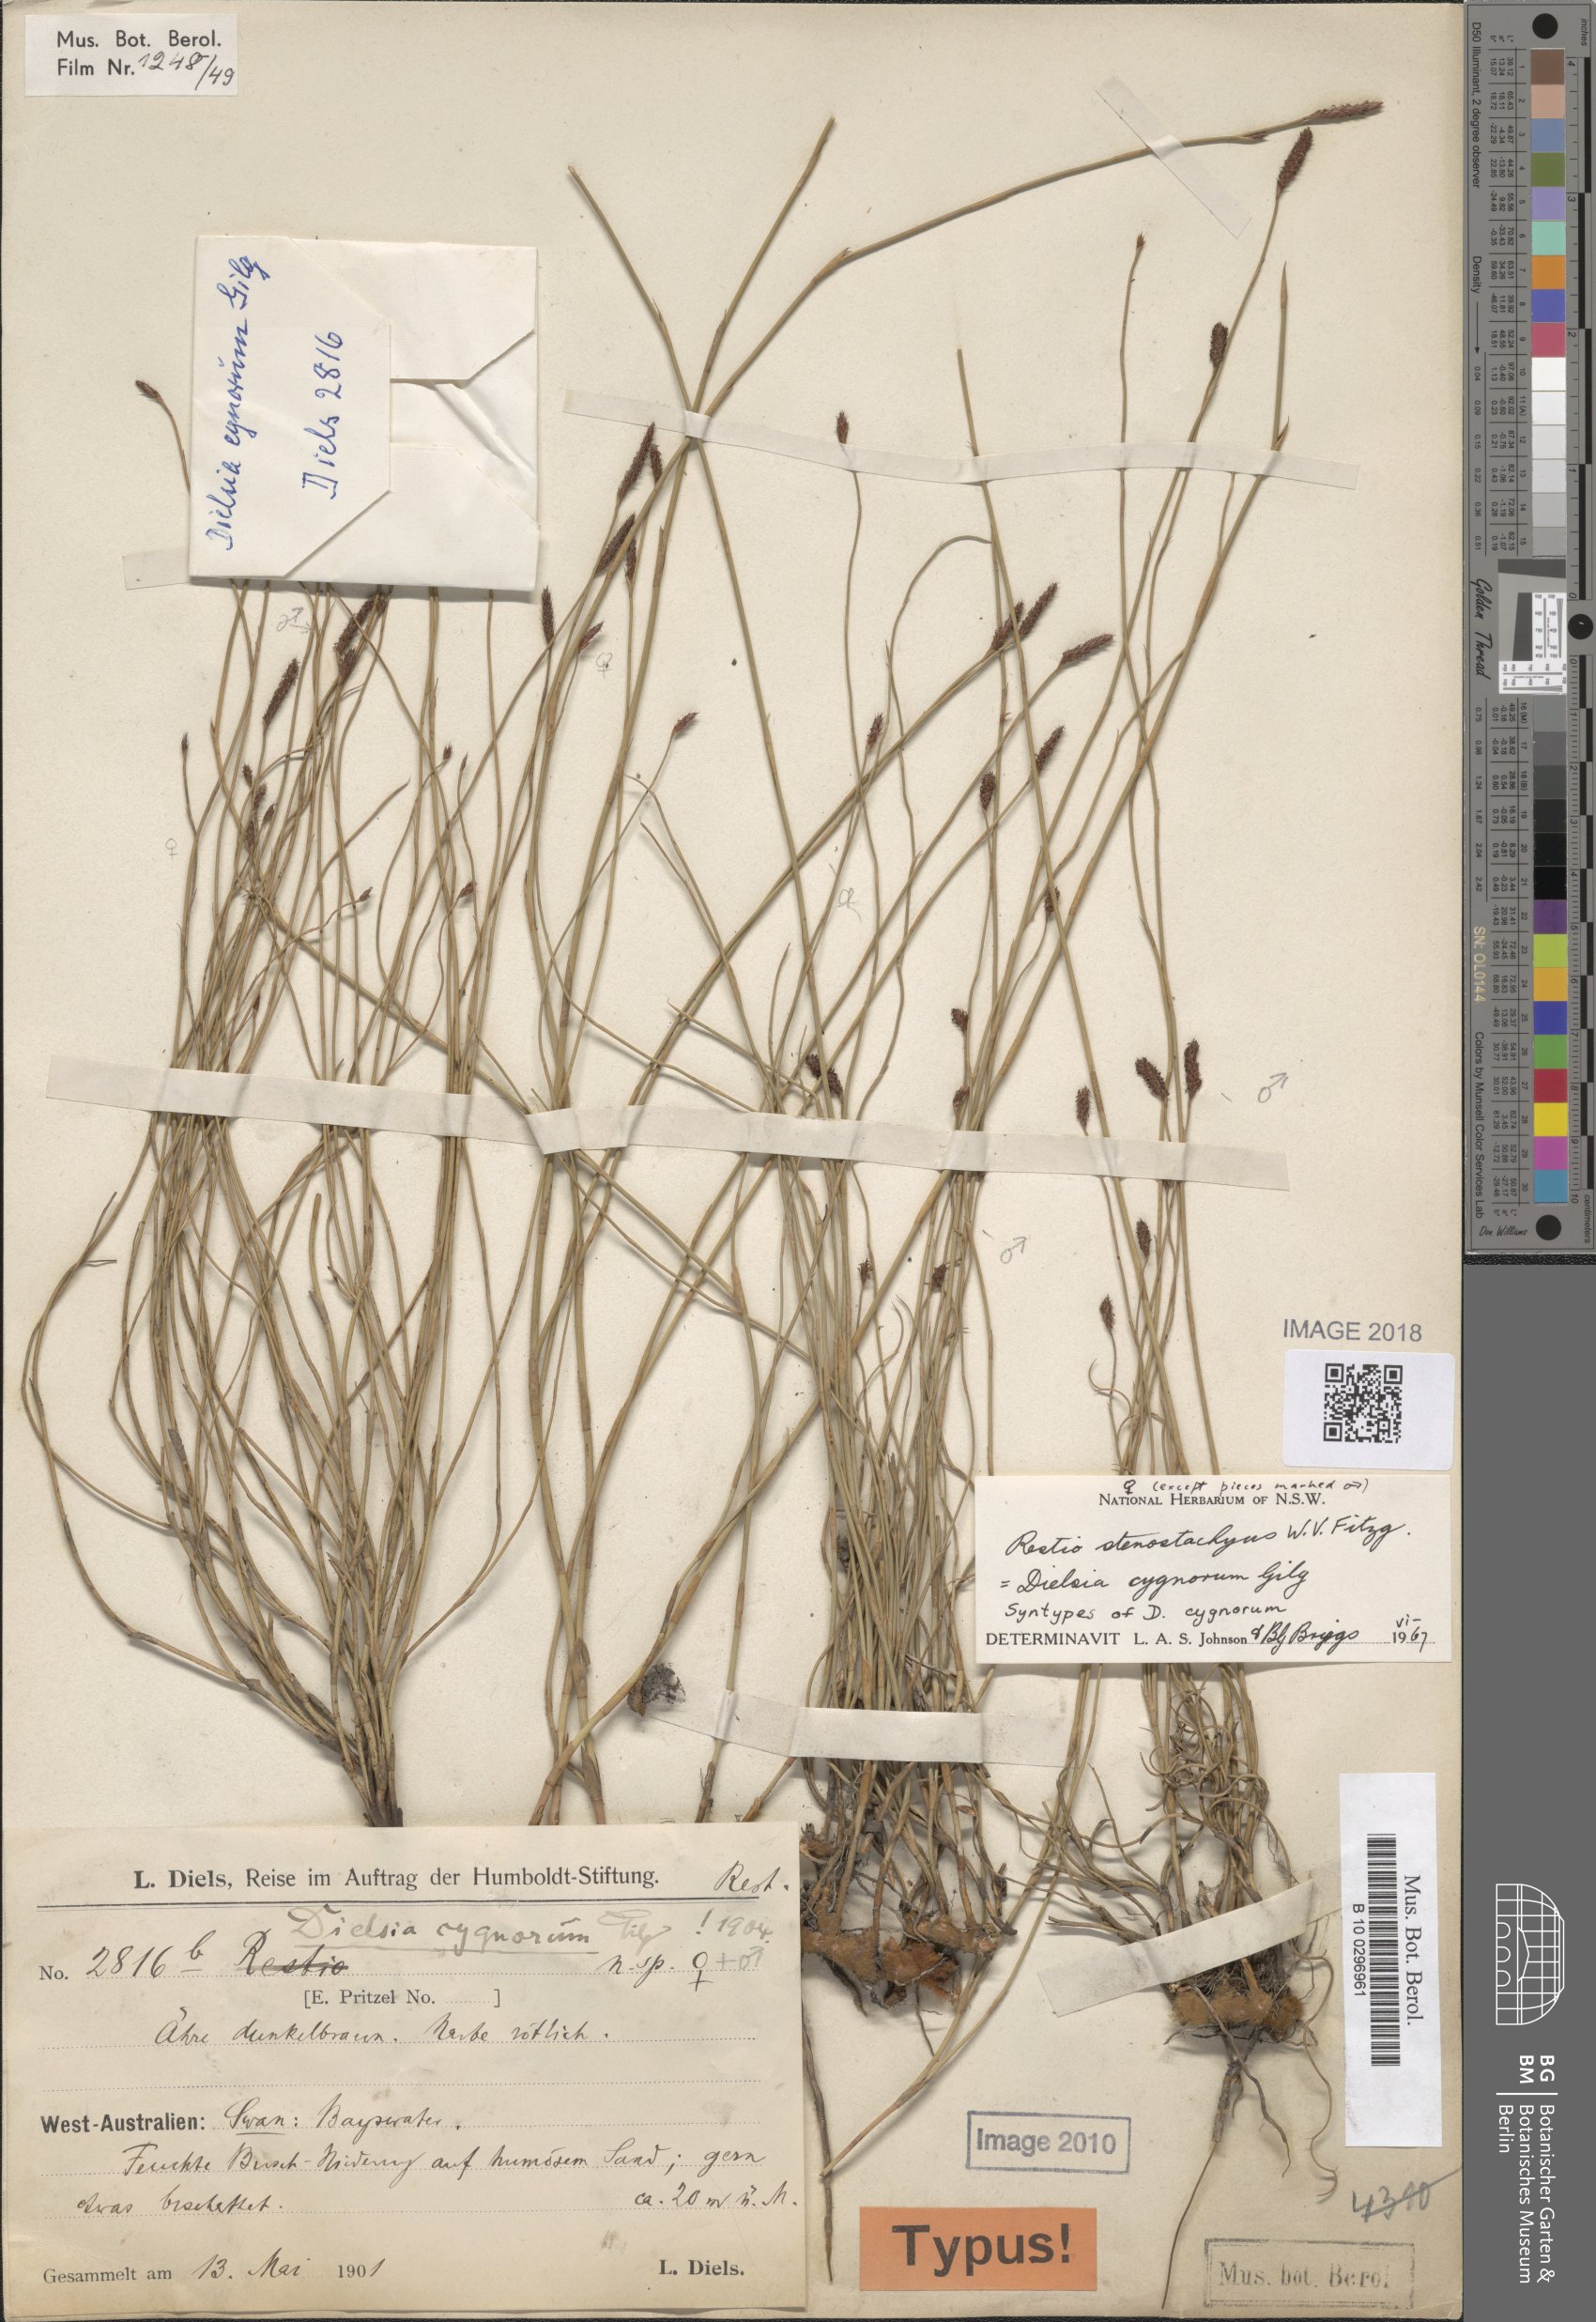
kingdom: Plantae
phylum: Tracheophyta
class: Liliopsida
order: Poales
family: Restionaceae
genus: Dielsia
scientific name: Dielsia stenostachya
